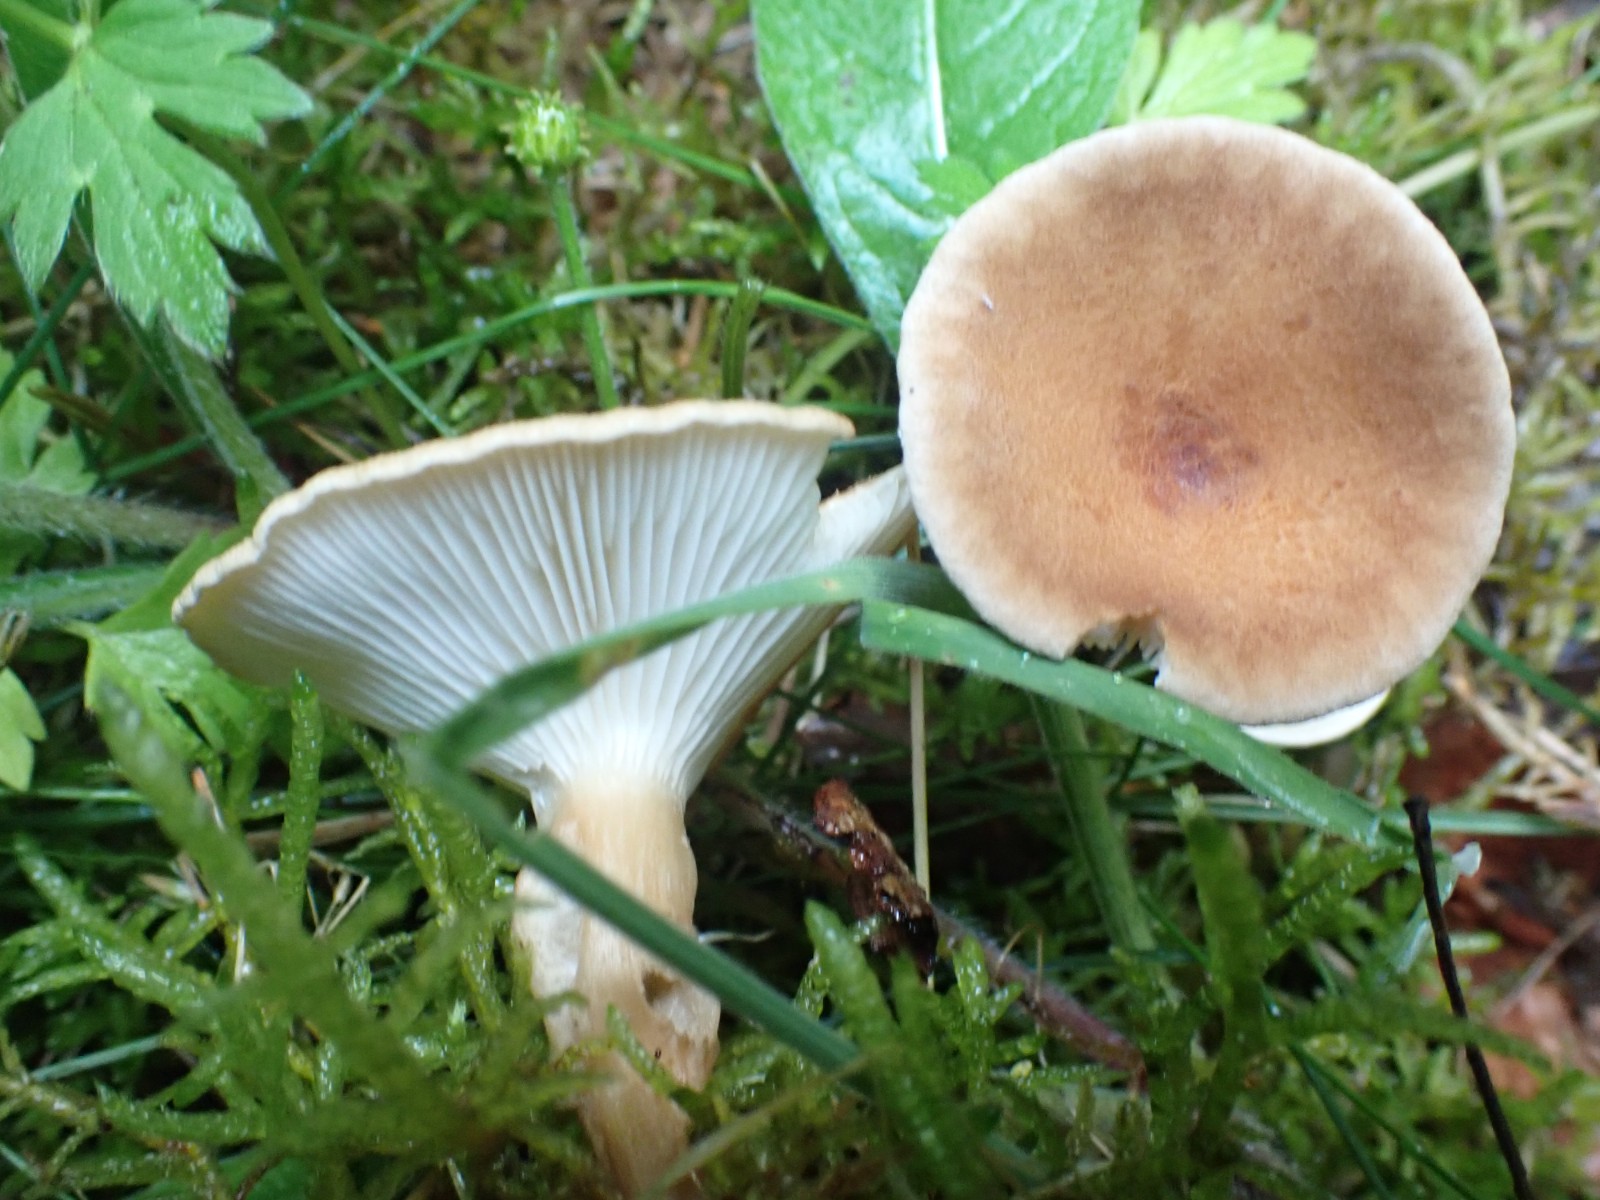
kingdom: Fungi
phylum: Basidiomycota
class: Agaricomycetes
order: Agaricales
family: Tricholomataceae
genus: Infundibulicybe
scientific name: Infundibulicybe squamulosa
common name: småskællet tragthat
